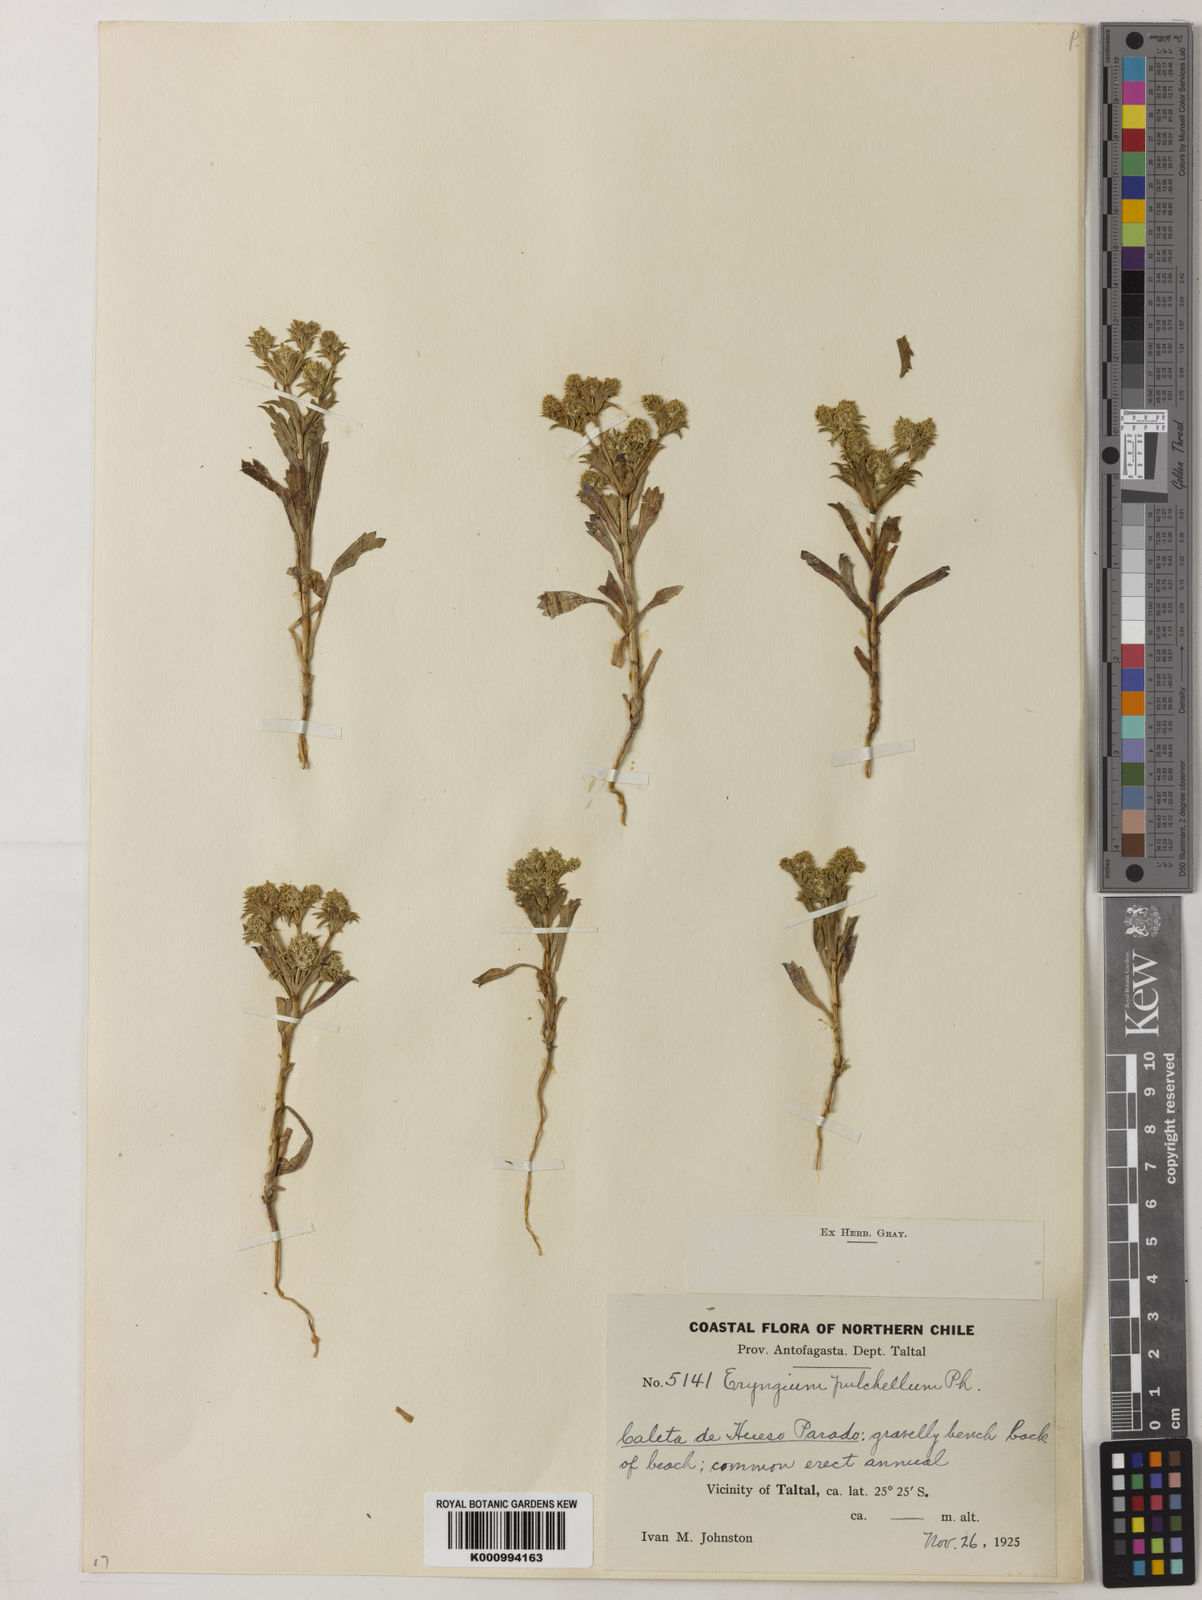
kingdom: Plantae
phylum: Tracheophyta
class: Magnoliopsida
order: Apiales
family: Apiaceae
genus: Eryngium
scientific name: Eryngium pulchellum
